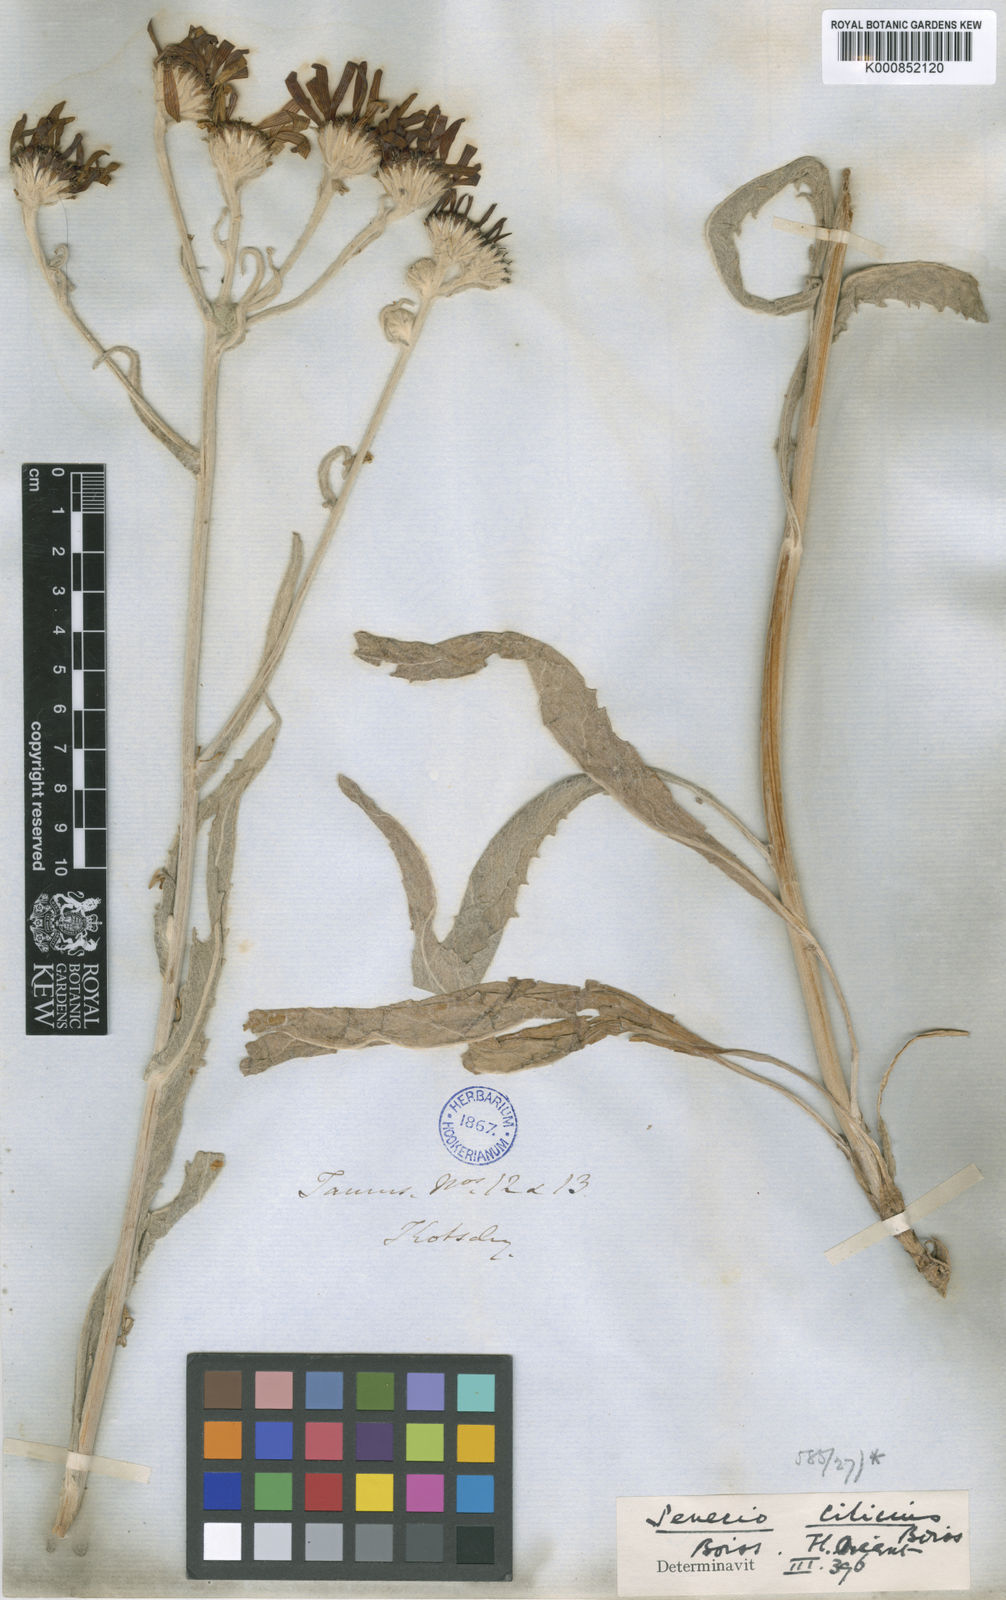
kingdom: Plantae
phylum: Tracheophyta
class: Magnoliopsida
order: Asterales
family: Asteraceae
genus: Jacobaea
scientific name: Jacobaea cilicia
